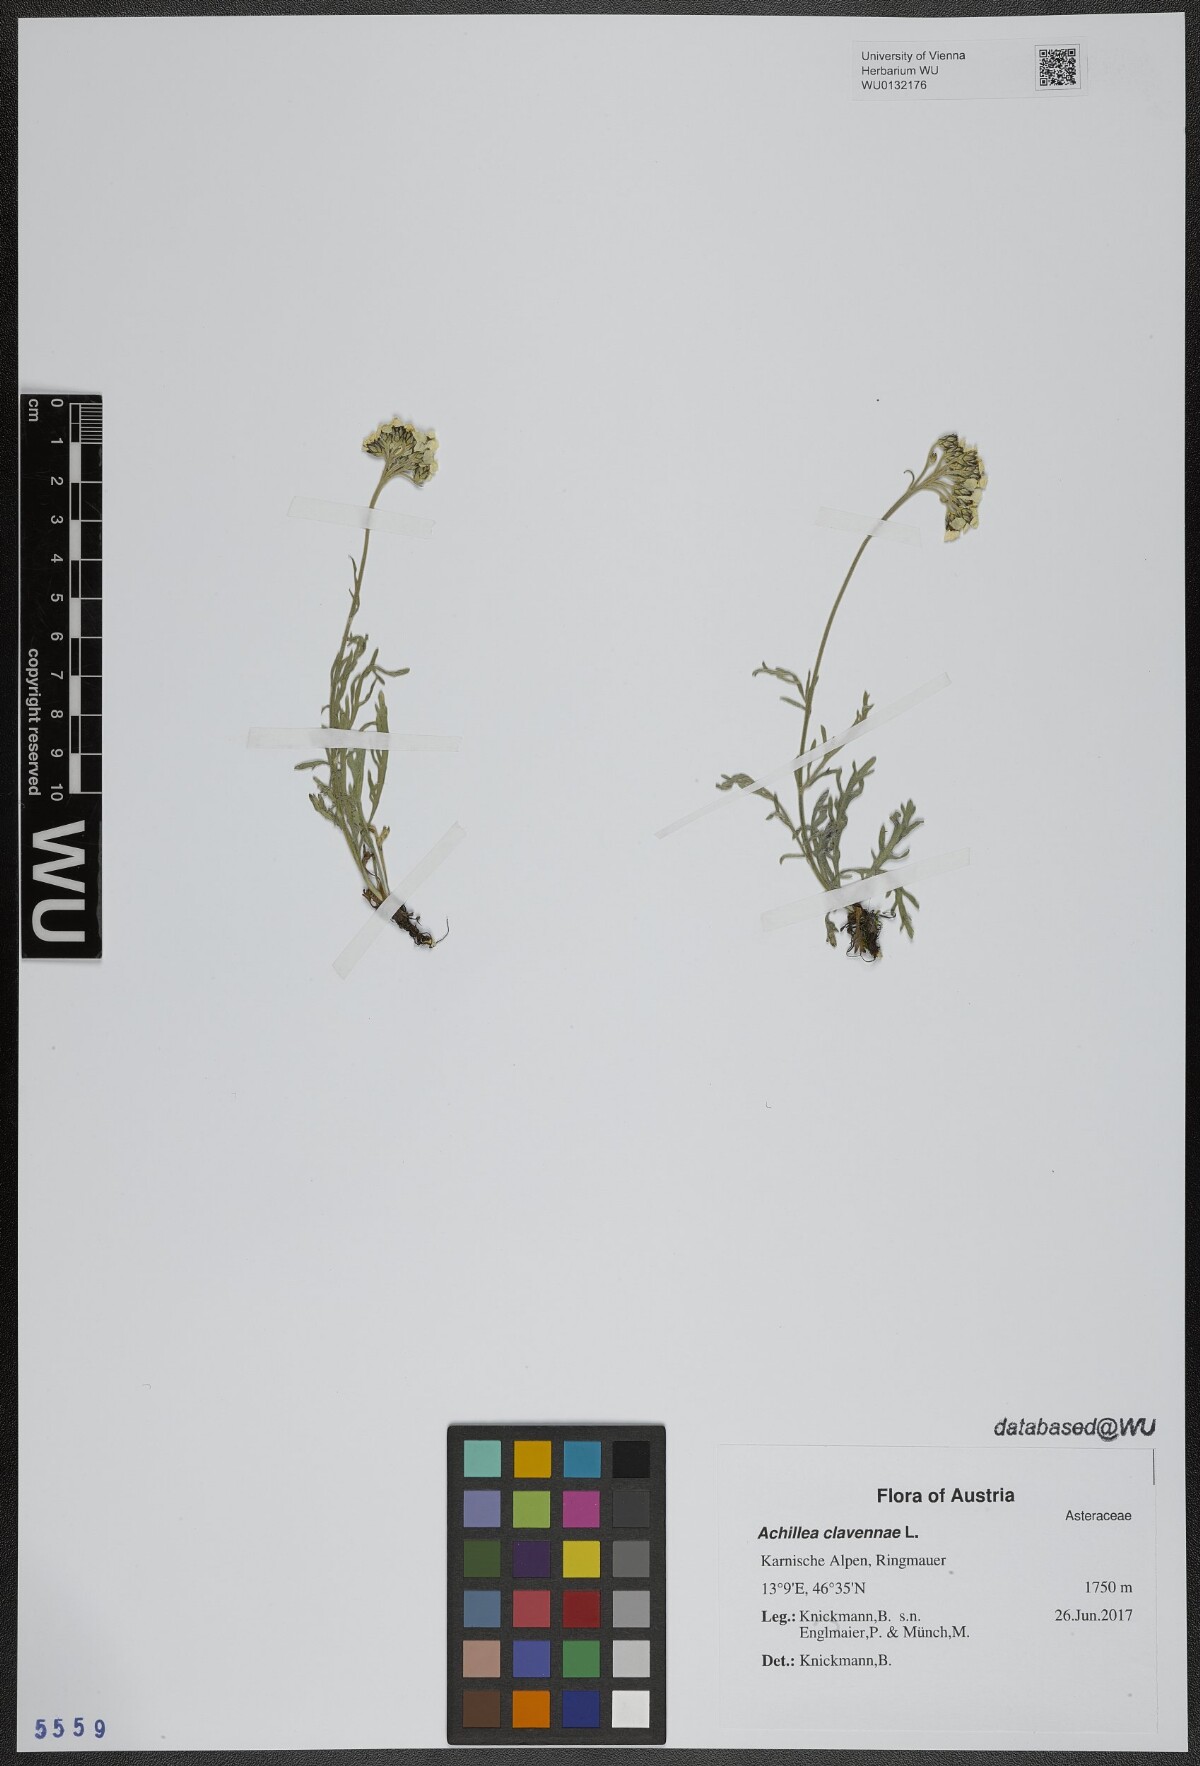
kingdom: Plantae
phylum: Tracheophyta
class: Magnoliopsida
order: Asterales
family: Asteraceae
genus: Achillea
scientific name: Achillea clavennae
